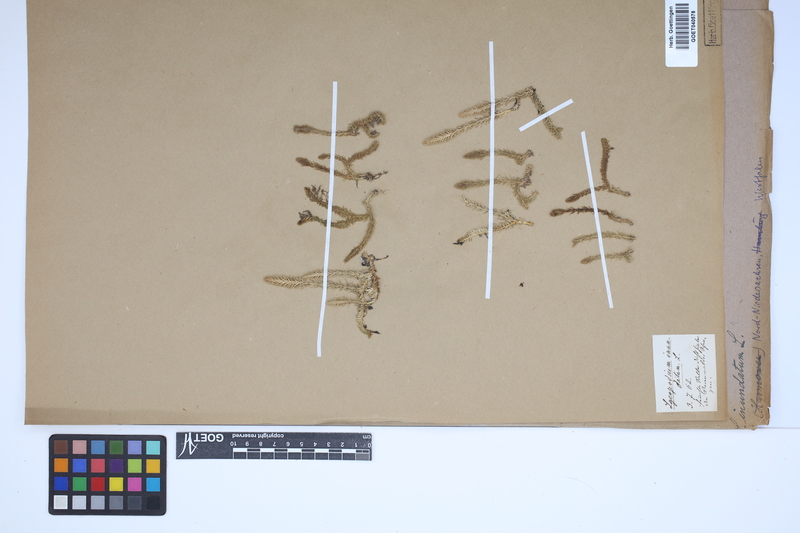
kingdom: Plantae
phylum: Tracheophyta
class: Lycopodiopsida
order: Lycopodiales
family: Lycopodiaceae
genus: Lycopodiella
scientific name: Lycopodiella inundata
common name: Marsh clubmoss
